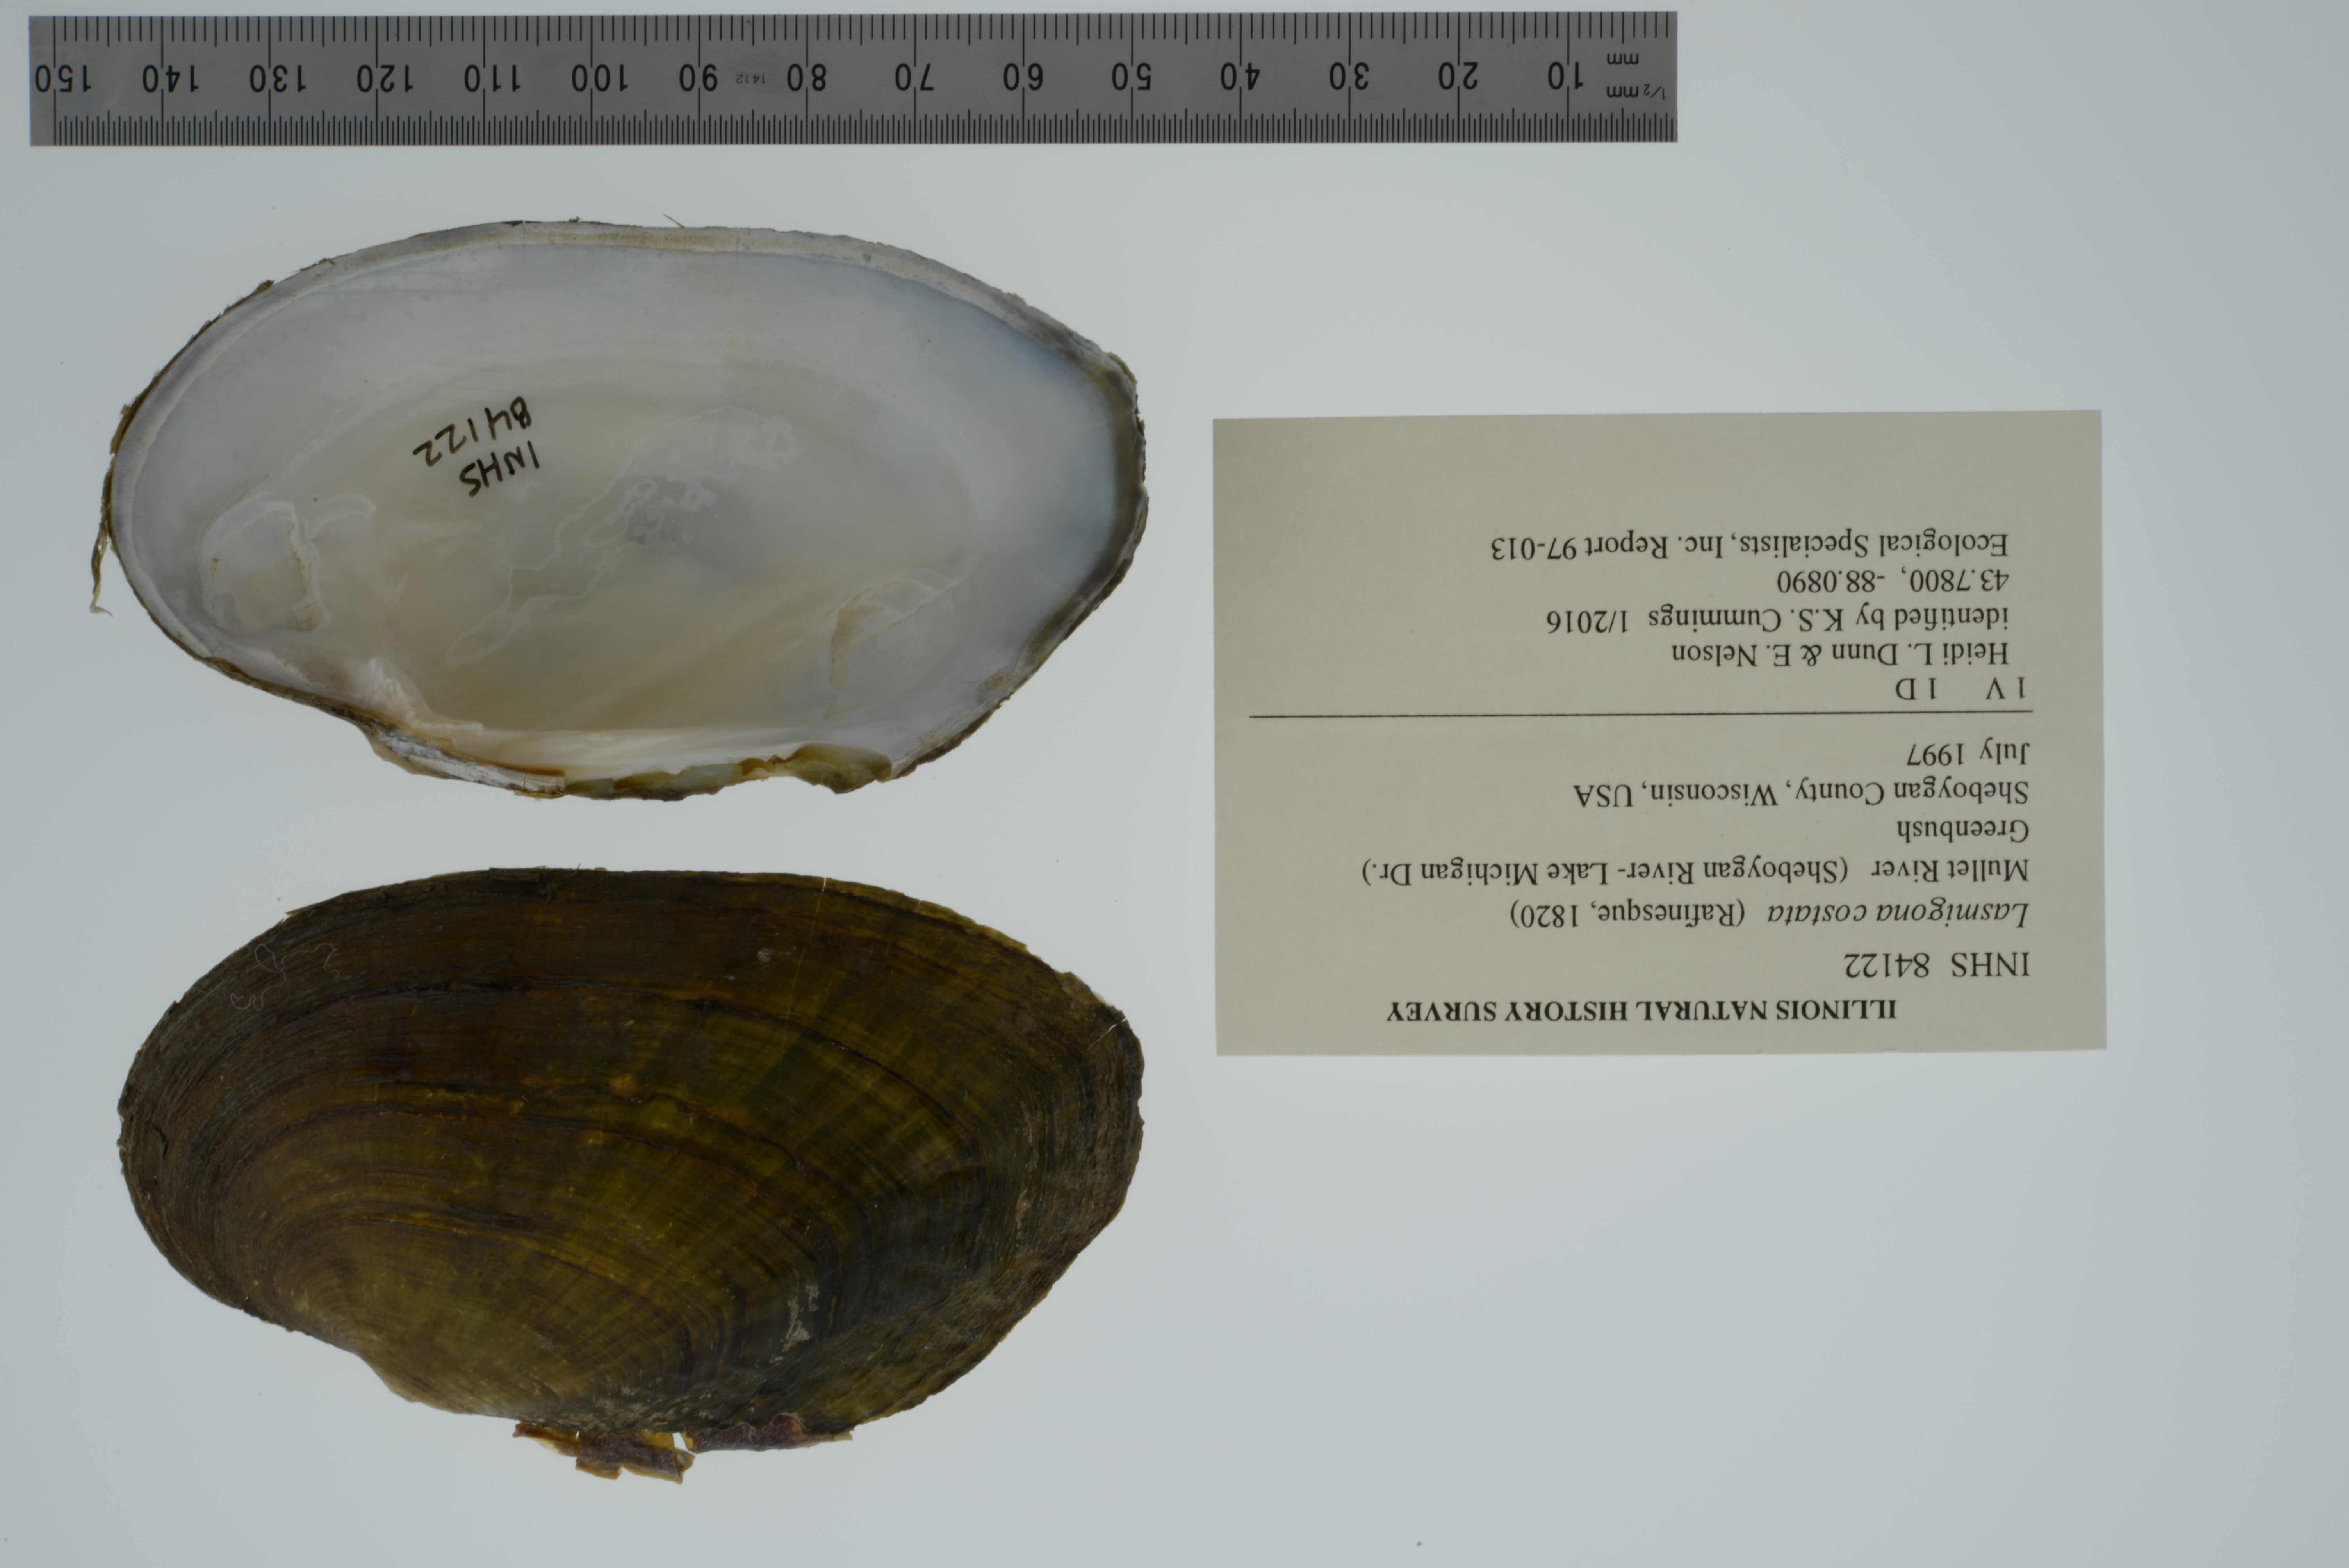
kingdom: Animalia
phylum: Mollusca
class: Bivalvia
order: Unionida
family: Unionidae
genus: Lasmigona
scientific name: Lasmigona costata
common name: Flutedshell
